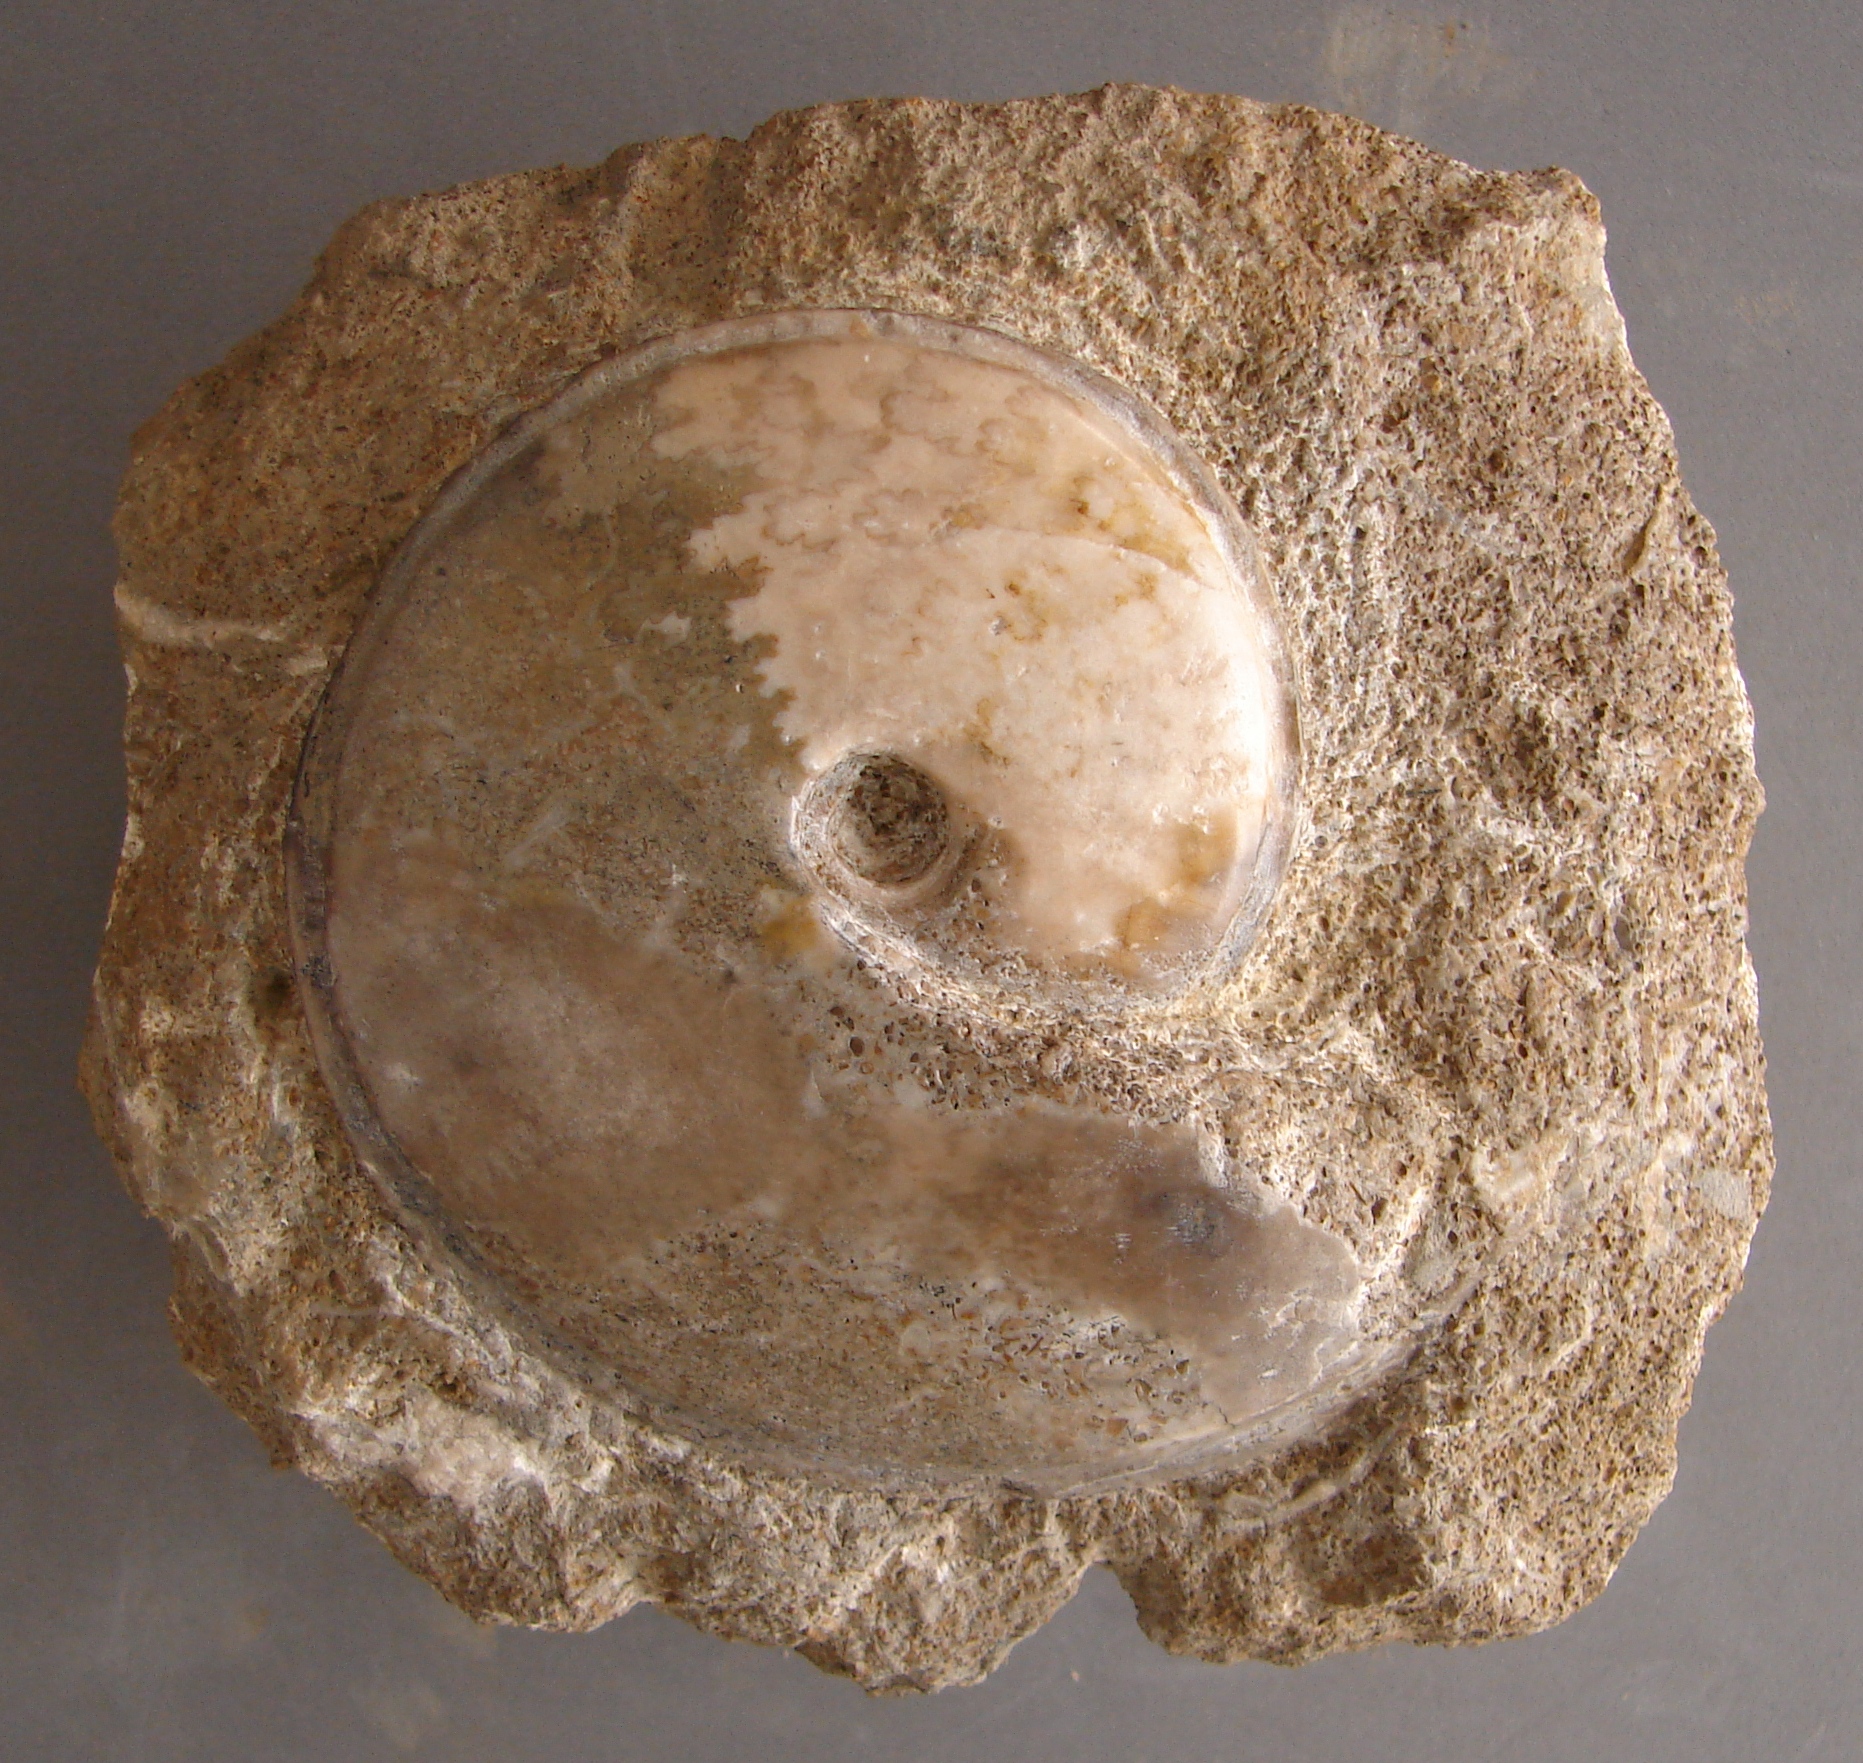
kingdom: Animalia
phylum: Mollusca
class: Cephalopoda
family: Graphoceratidae
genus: Hyperlioceras
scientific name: Hyperlioceras
